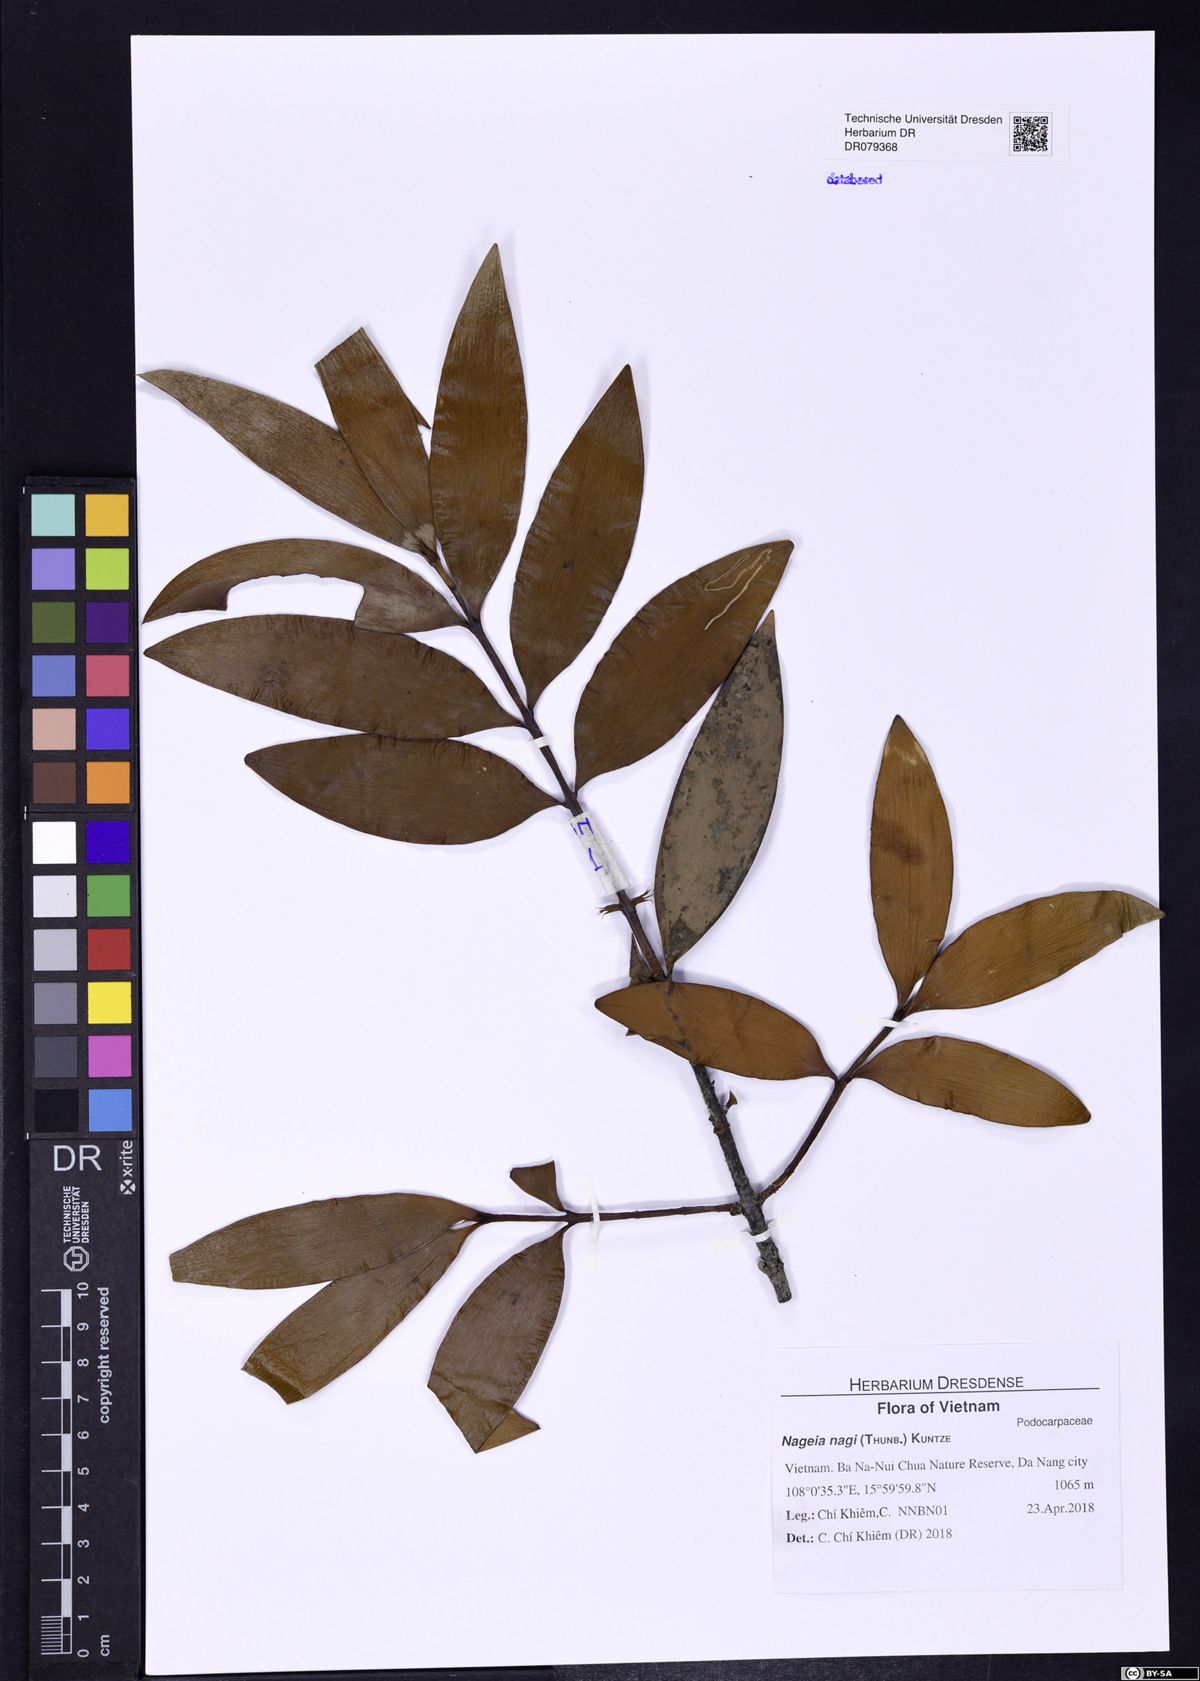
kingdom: Plantae
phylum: Tracheophyta
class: Pinopsida
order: Pinales
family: Podocarpaceae
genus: Nageia
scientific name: Nageia nagi
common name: Kaphal
